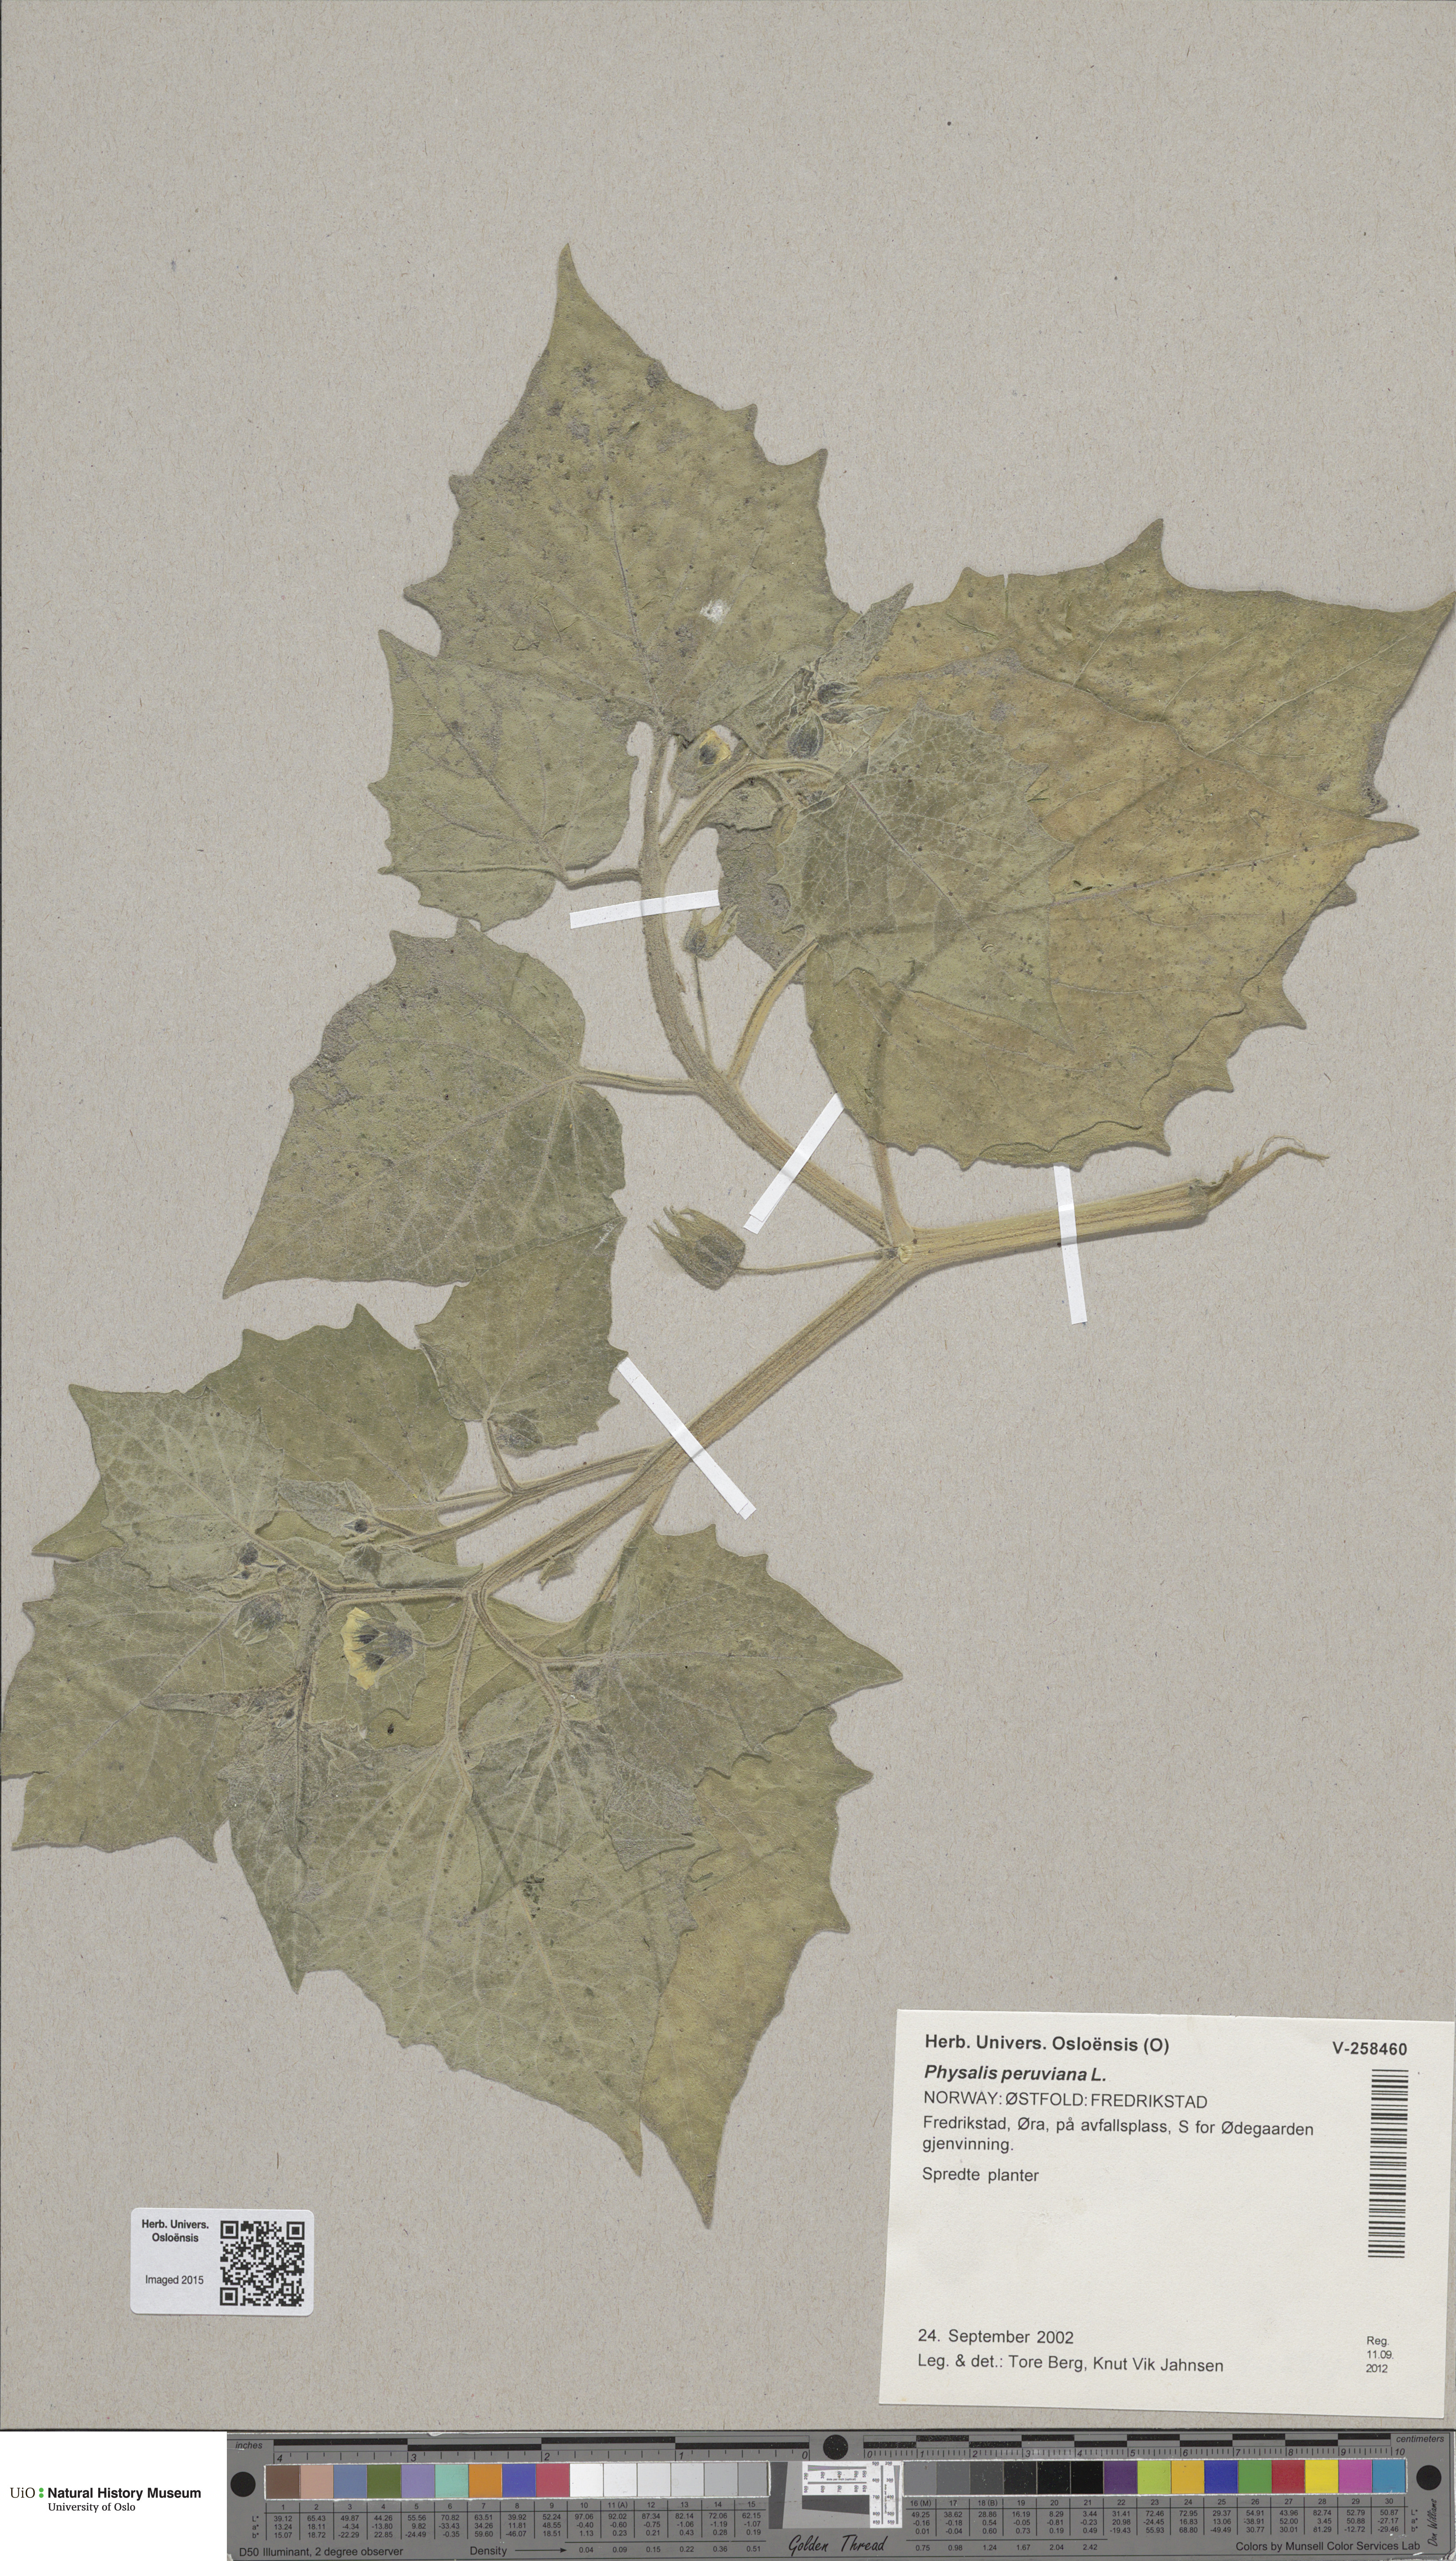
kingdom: Plantae
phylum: Tracheophyta
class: Magnoliopsida
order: Solanales
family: Solanaceae
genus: Physalis
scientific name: Physalis peruviana
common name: Cape-gooseberry
